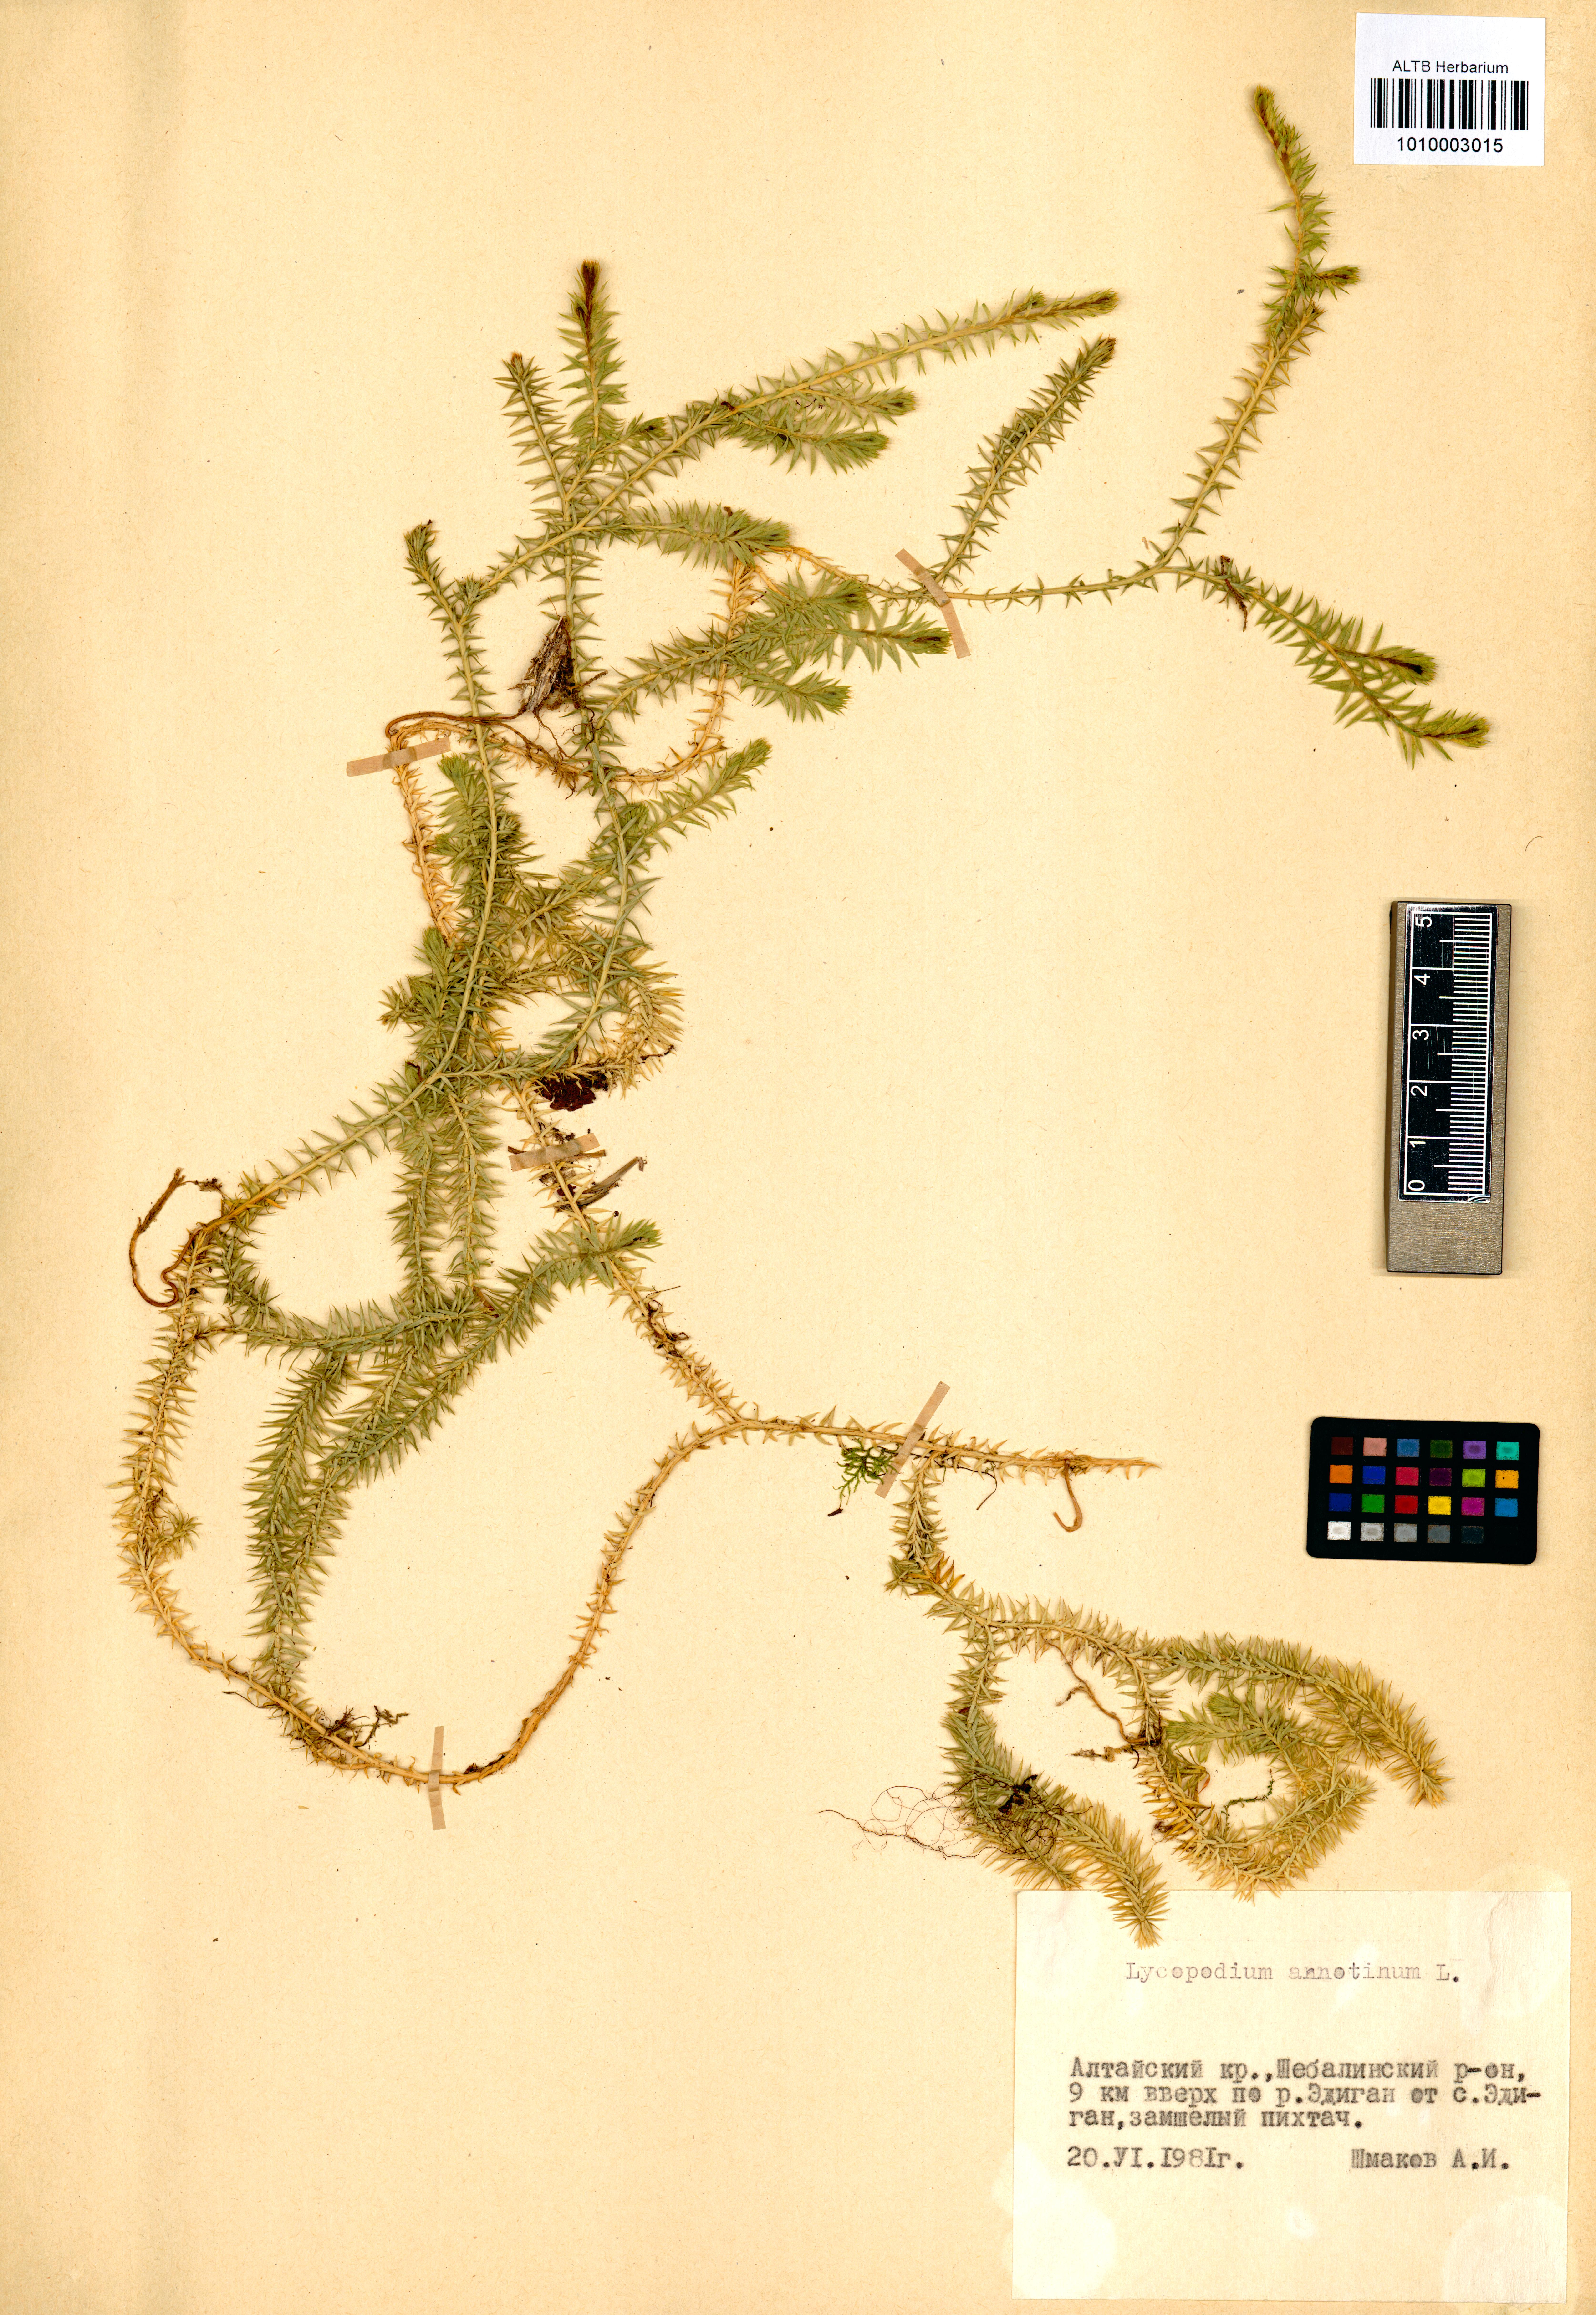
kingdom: Plantae
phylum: Tracheophyta
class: Lycopodiopsida
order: Lycopodiales
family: Lycopodiaceae
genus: Spinulum
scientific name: Spinulum annotinum
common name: Interrupted club-moss
